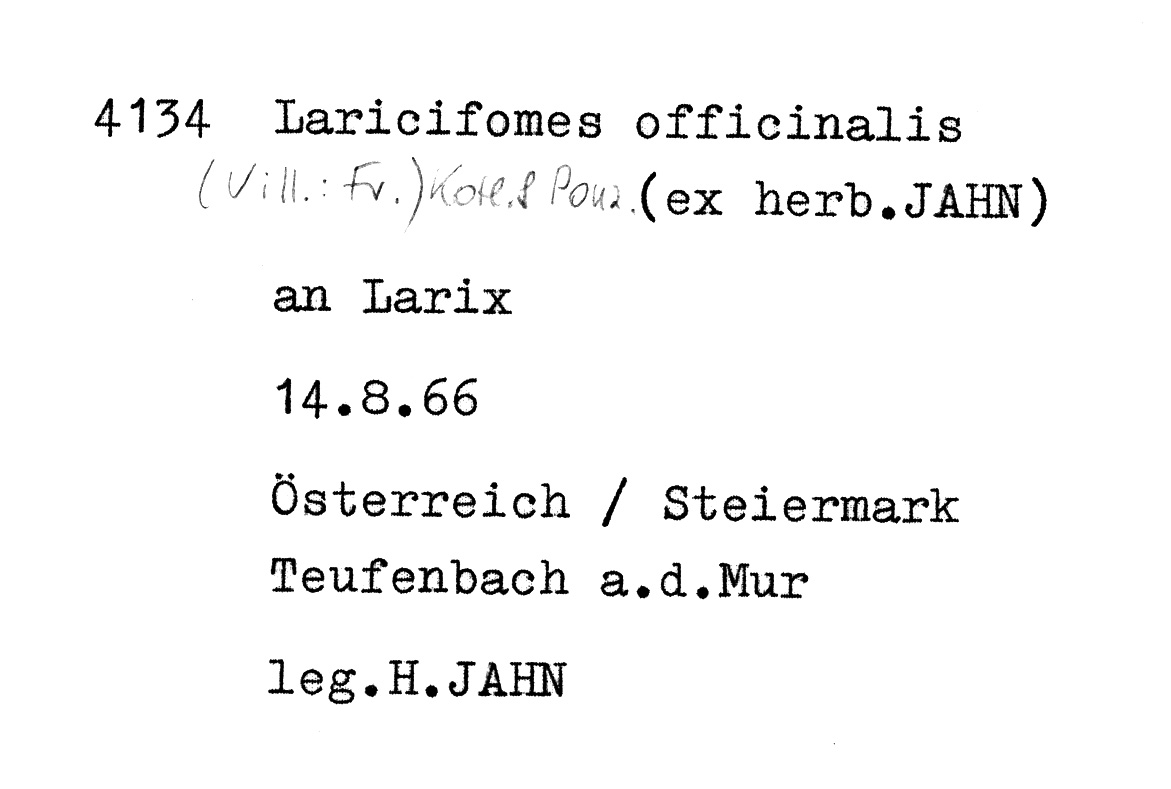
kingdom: Plantae
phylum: Tracheophyta
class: Pinopsida
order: Pinales
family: Pinaceae
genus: Larix
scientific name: Larix
